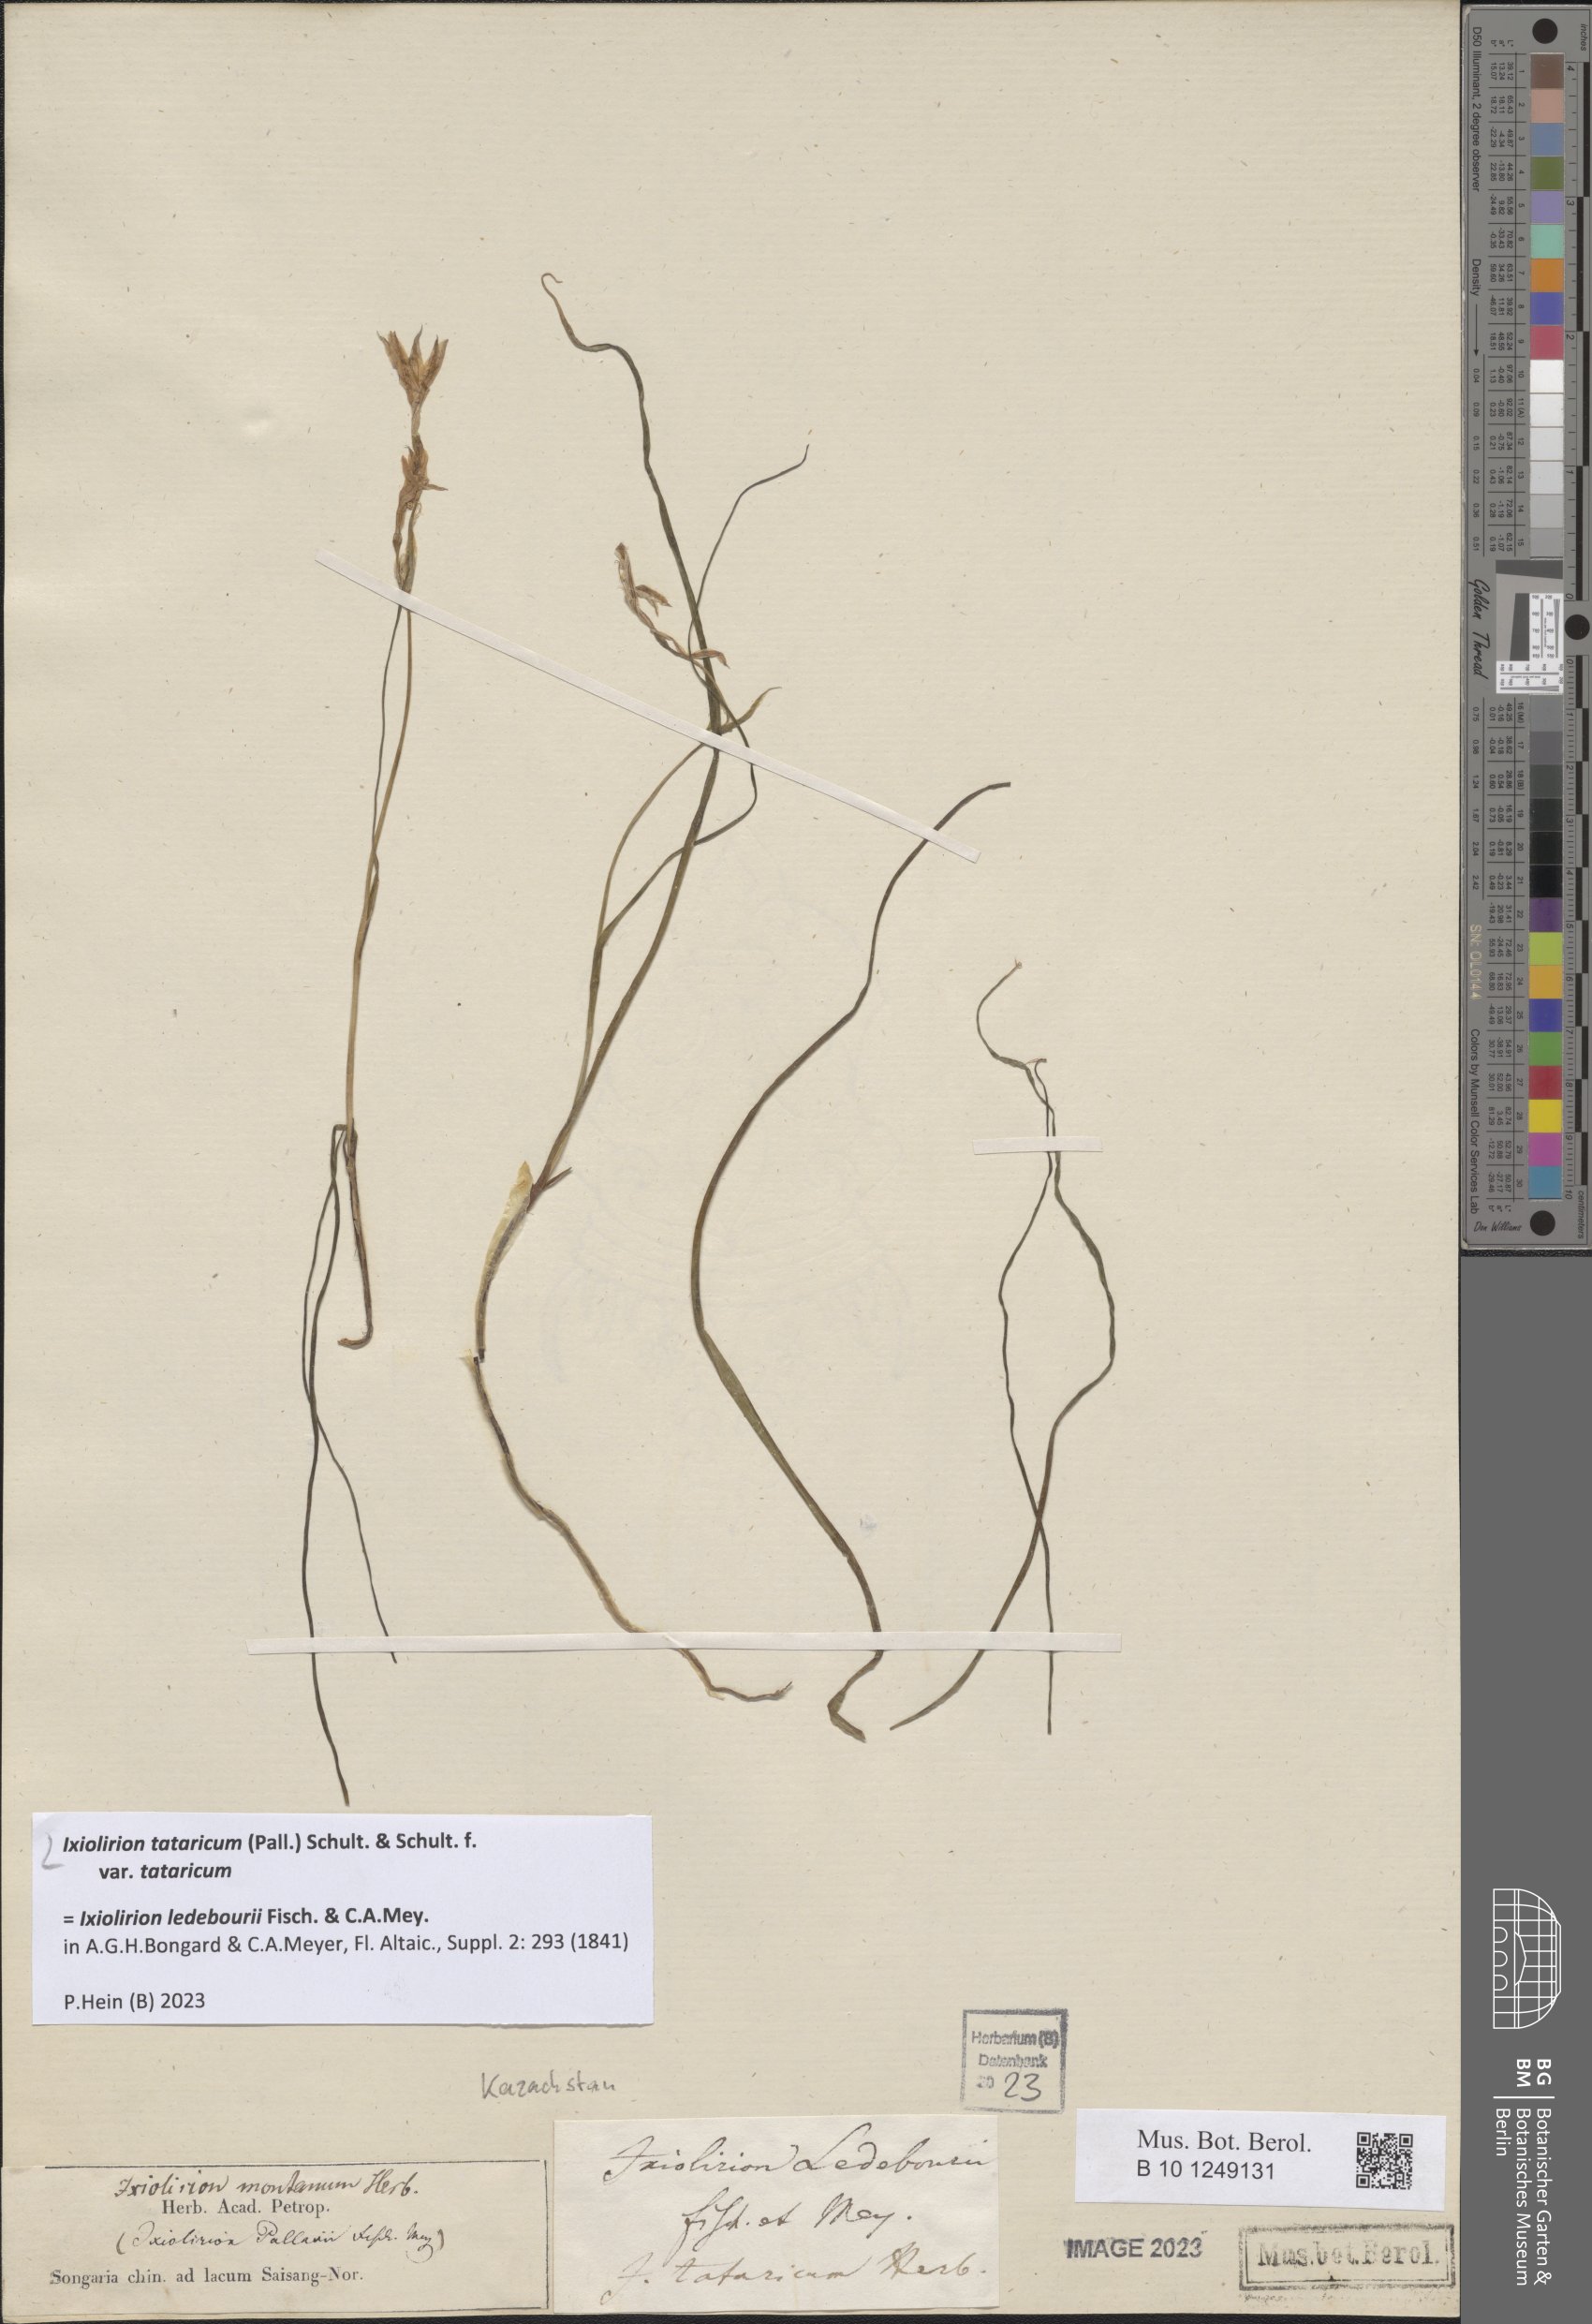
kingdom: Plantae
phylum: Tracheophyta
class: Liliopsida
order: Asparagales
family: Ixioliriaceae
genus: Ixiolirion
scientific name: Ixiolirion tataricum
